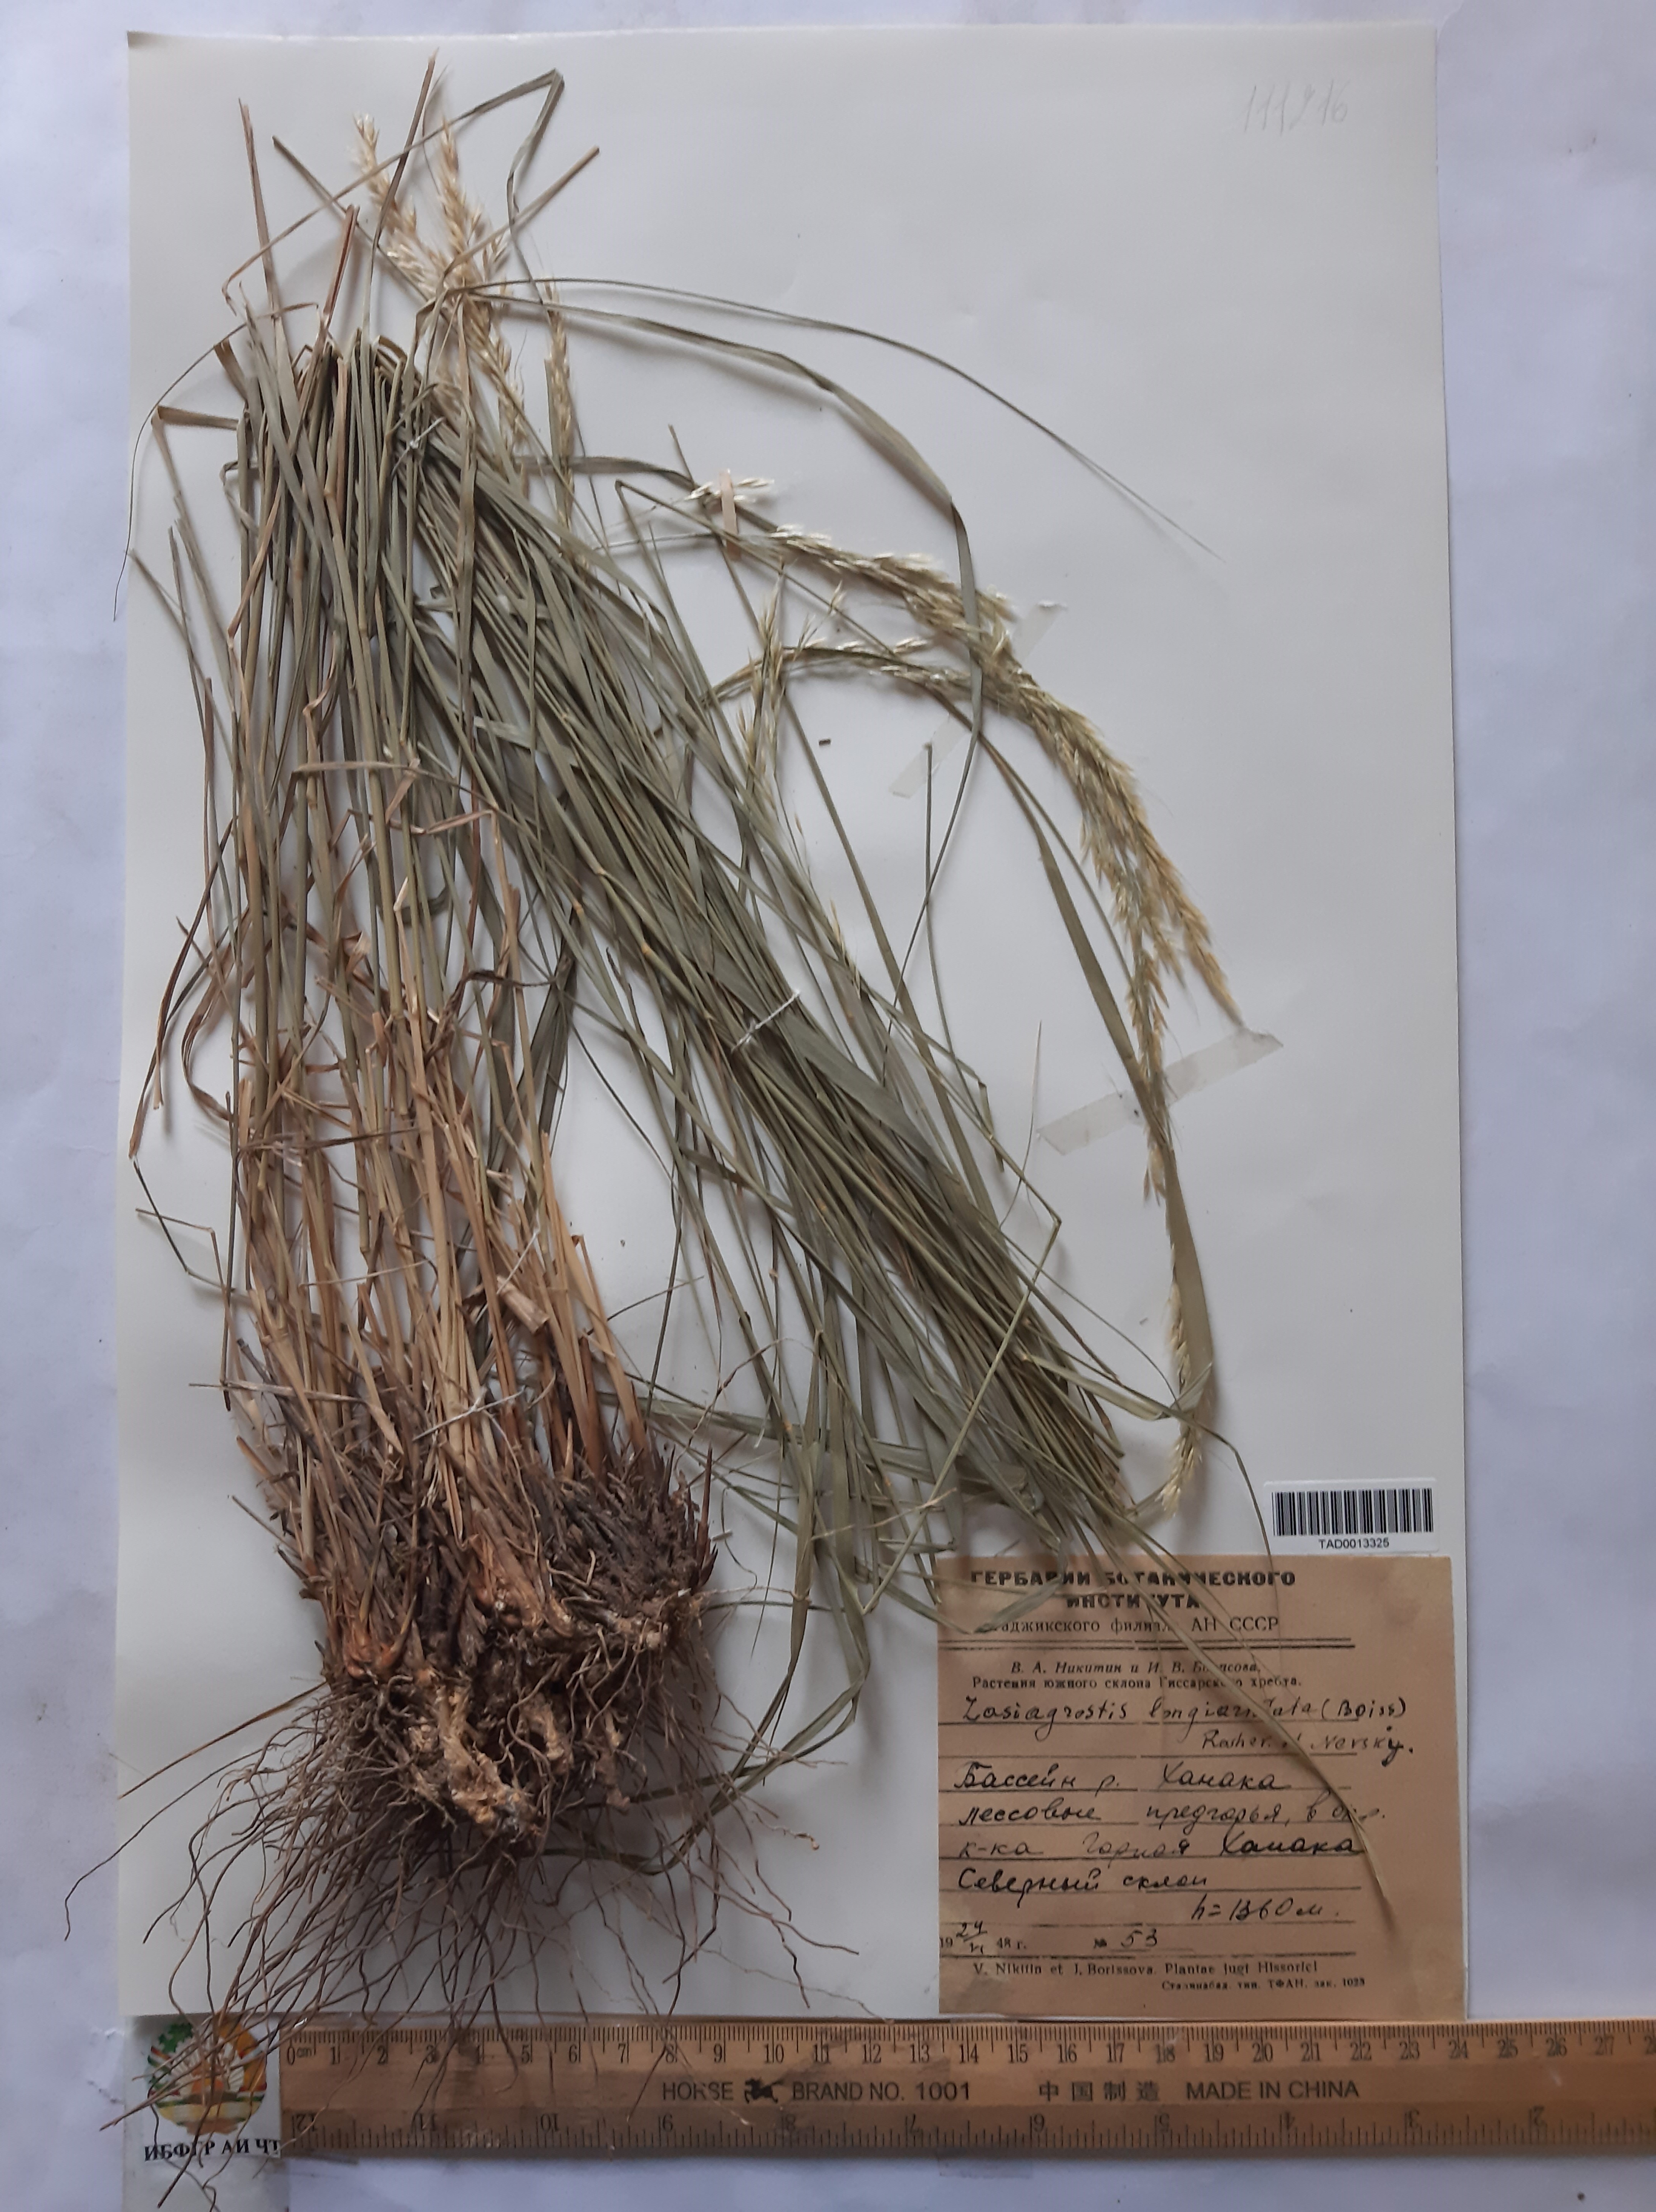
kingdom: Plantae
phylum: Tracheophyta
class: Liliopsida
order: Poales
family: Poaceae
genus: Achnatherum
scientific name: Achnatherum turcomanicum
